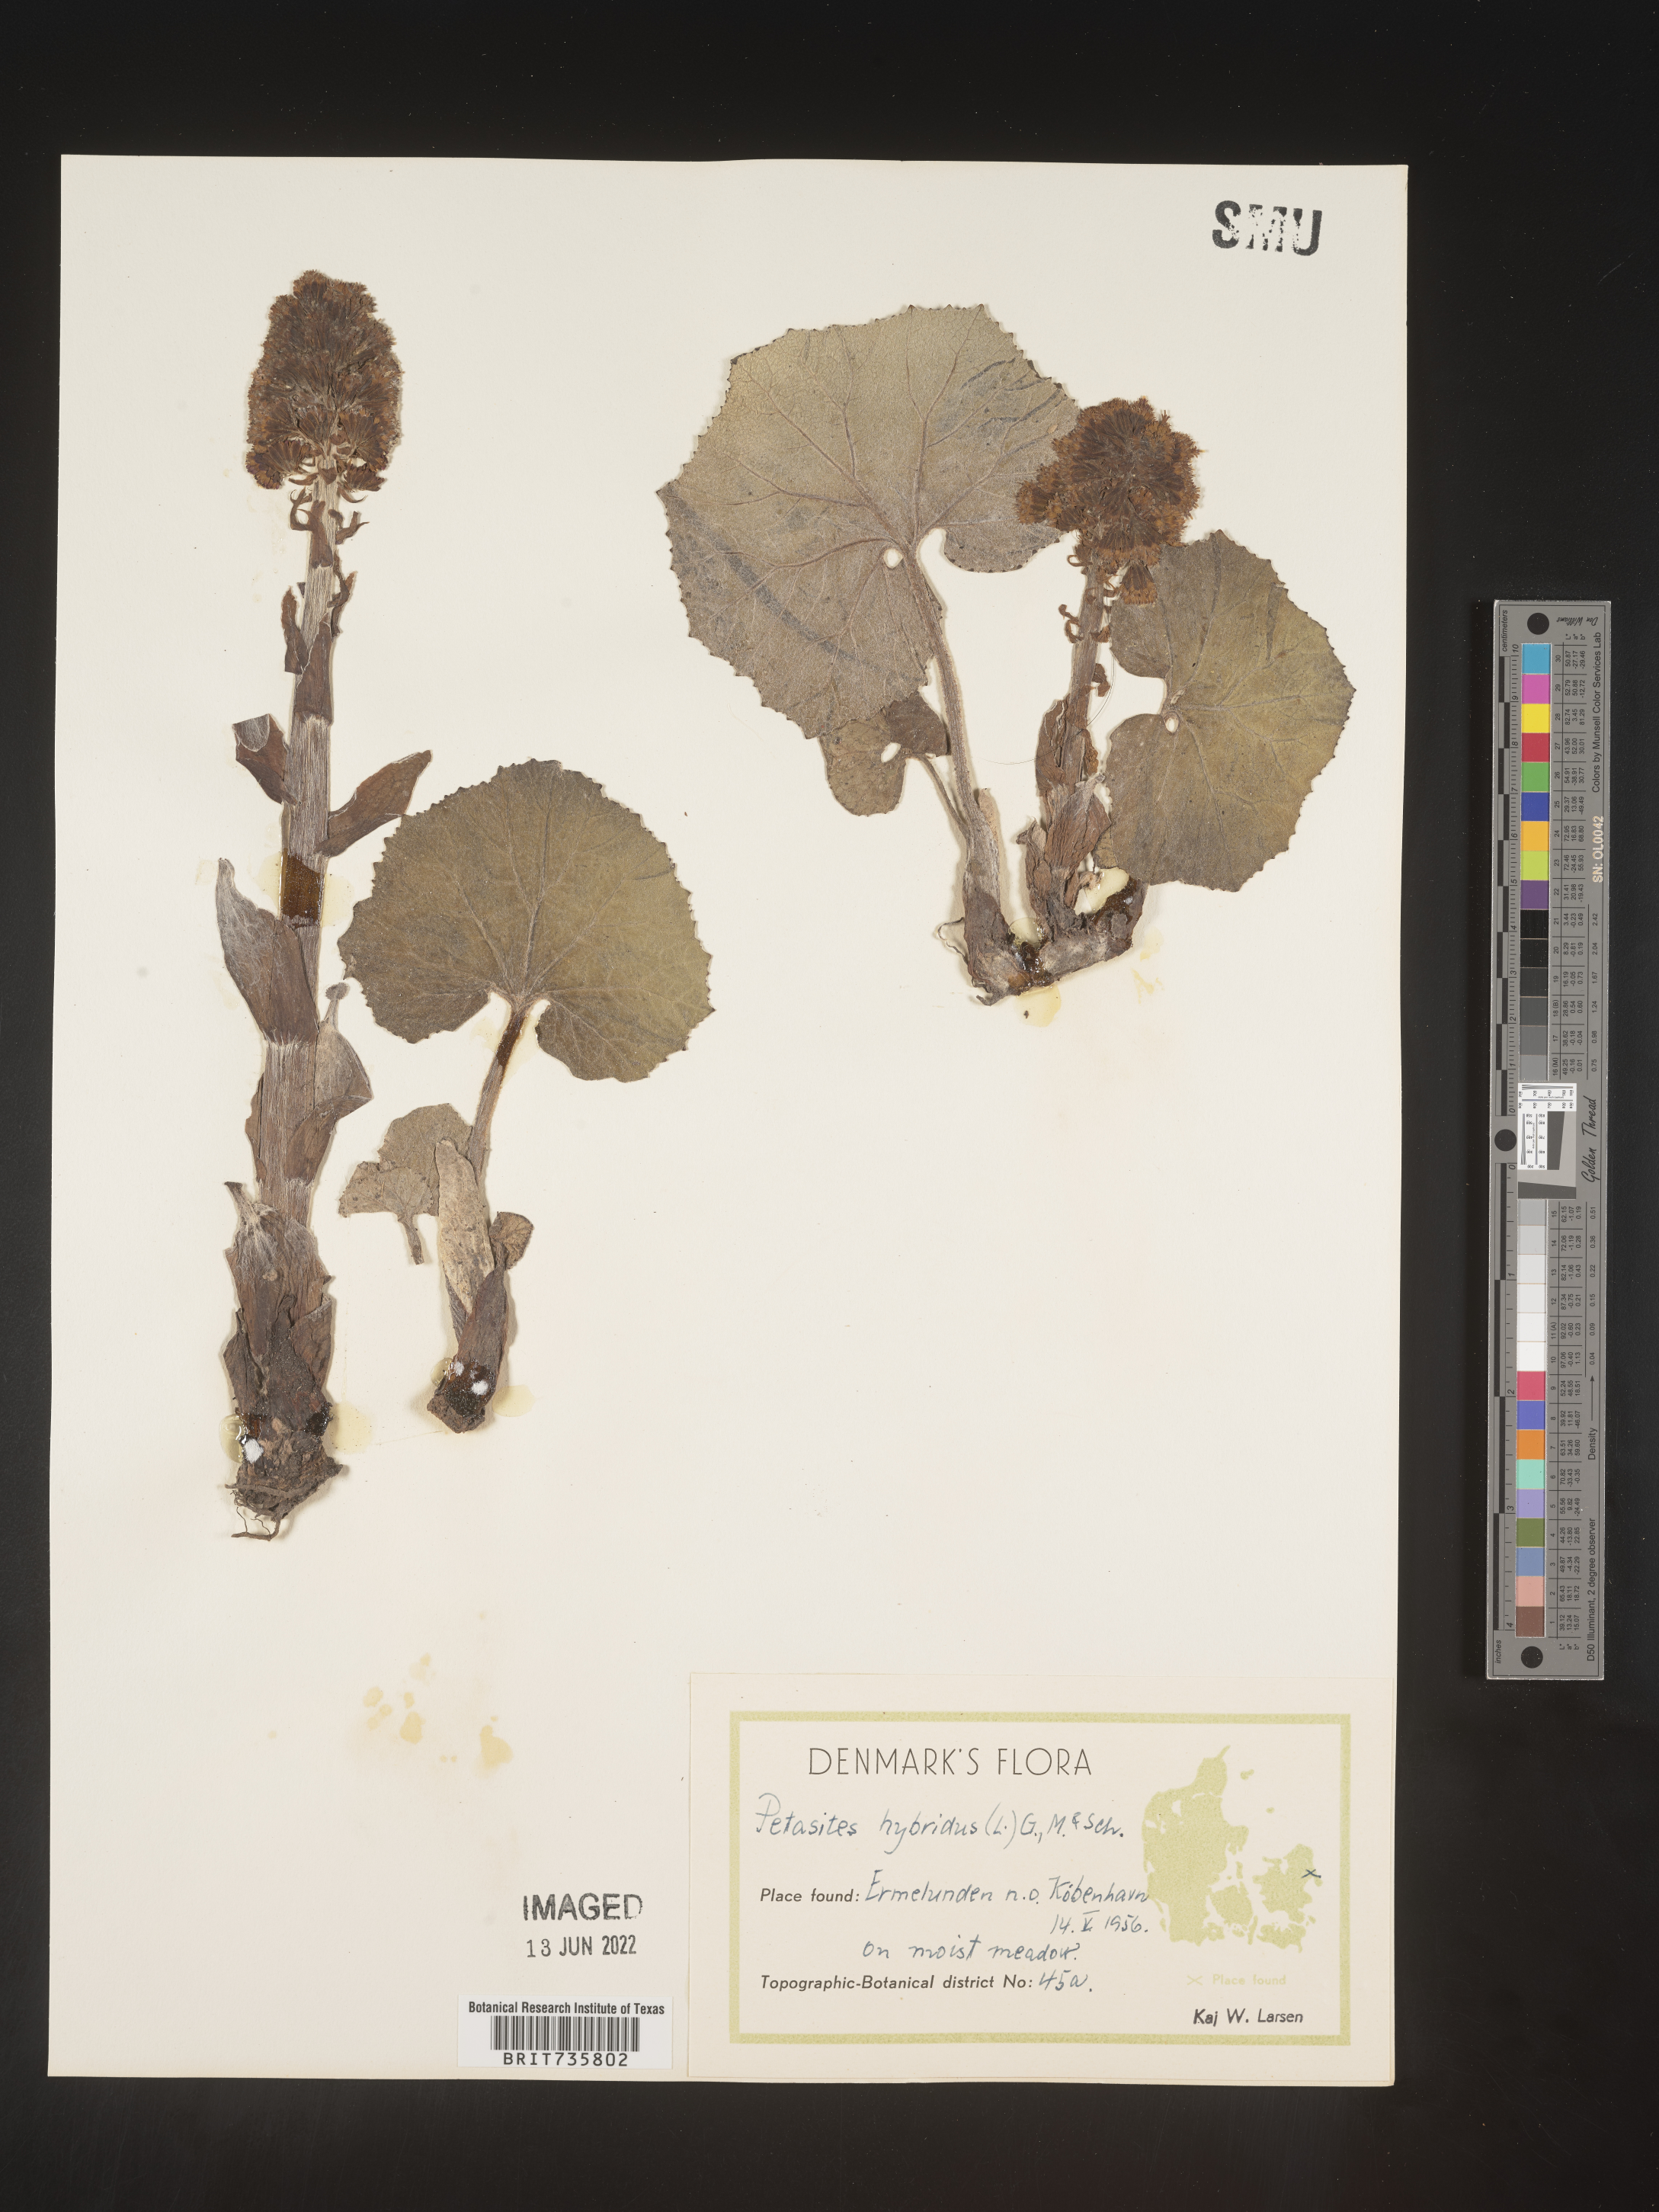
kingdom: Plantae
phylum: Tracheophyta
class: Magnoliopsida
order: Asterales
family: Asteraceae
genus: Petasites
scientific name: Petasites
